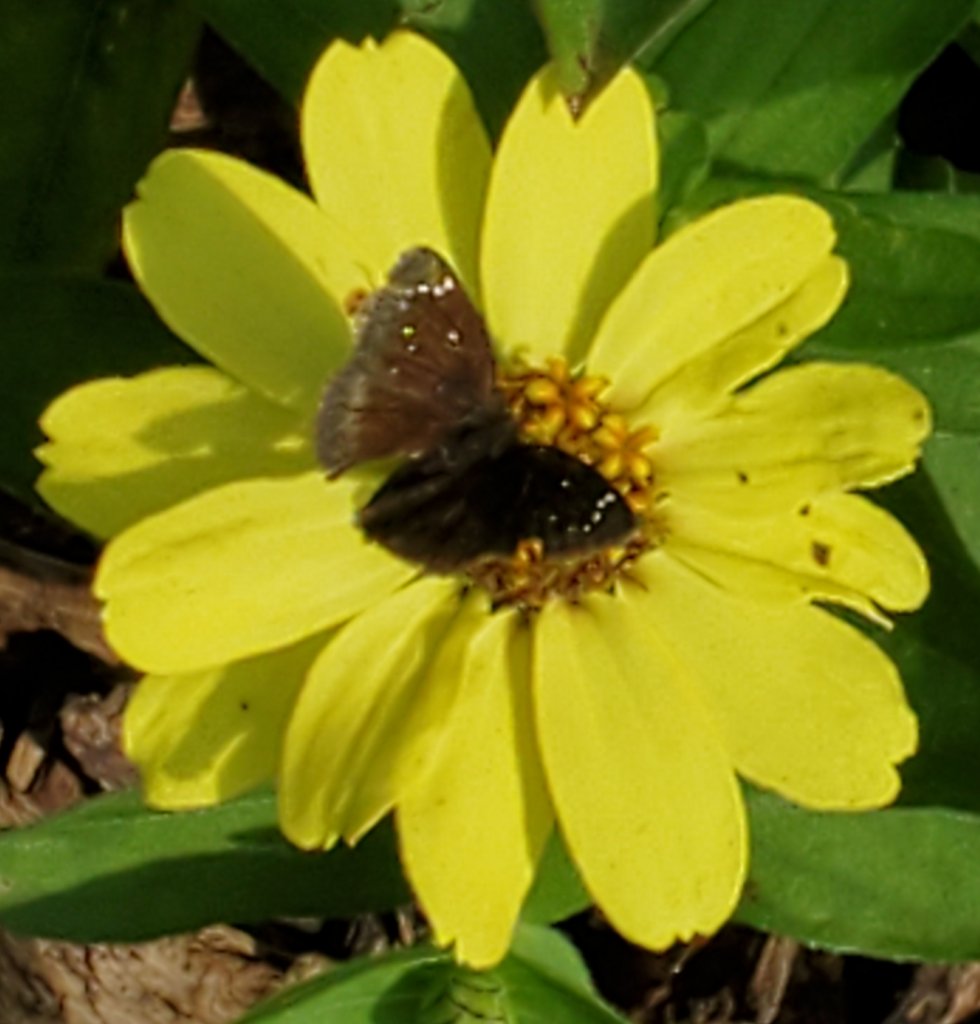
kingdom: Animalia
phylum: Arthropoda
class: Insecta
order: Lepidoptera
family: Hesperiidae
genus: Pholisora
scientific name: Pholisora catullus
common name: Common Sootywing
